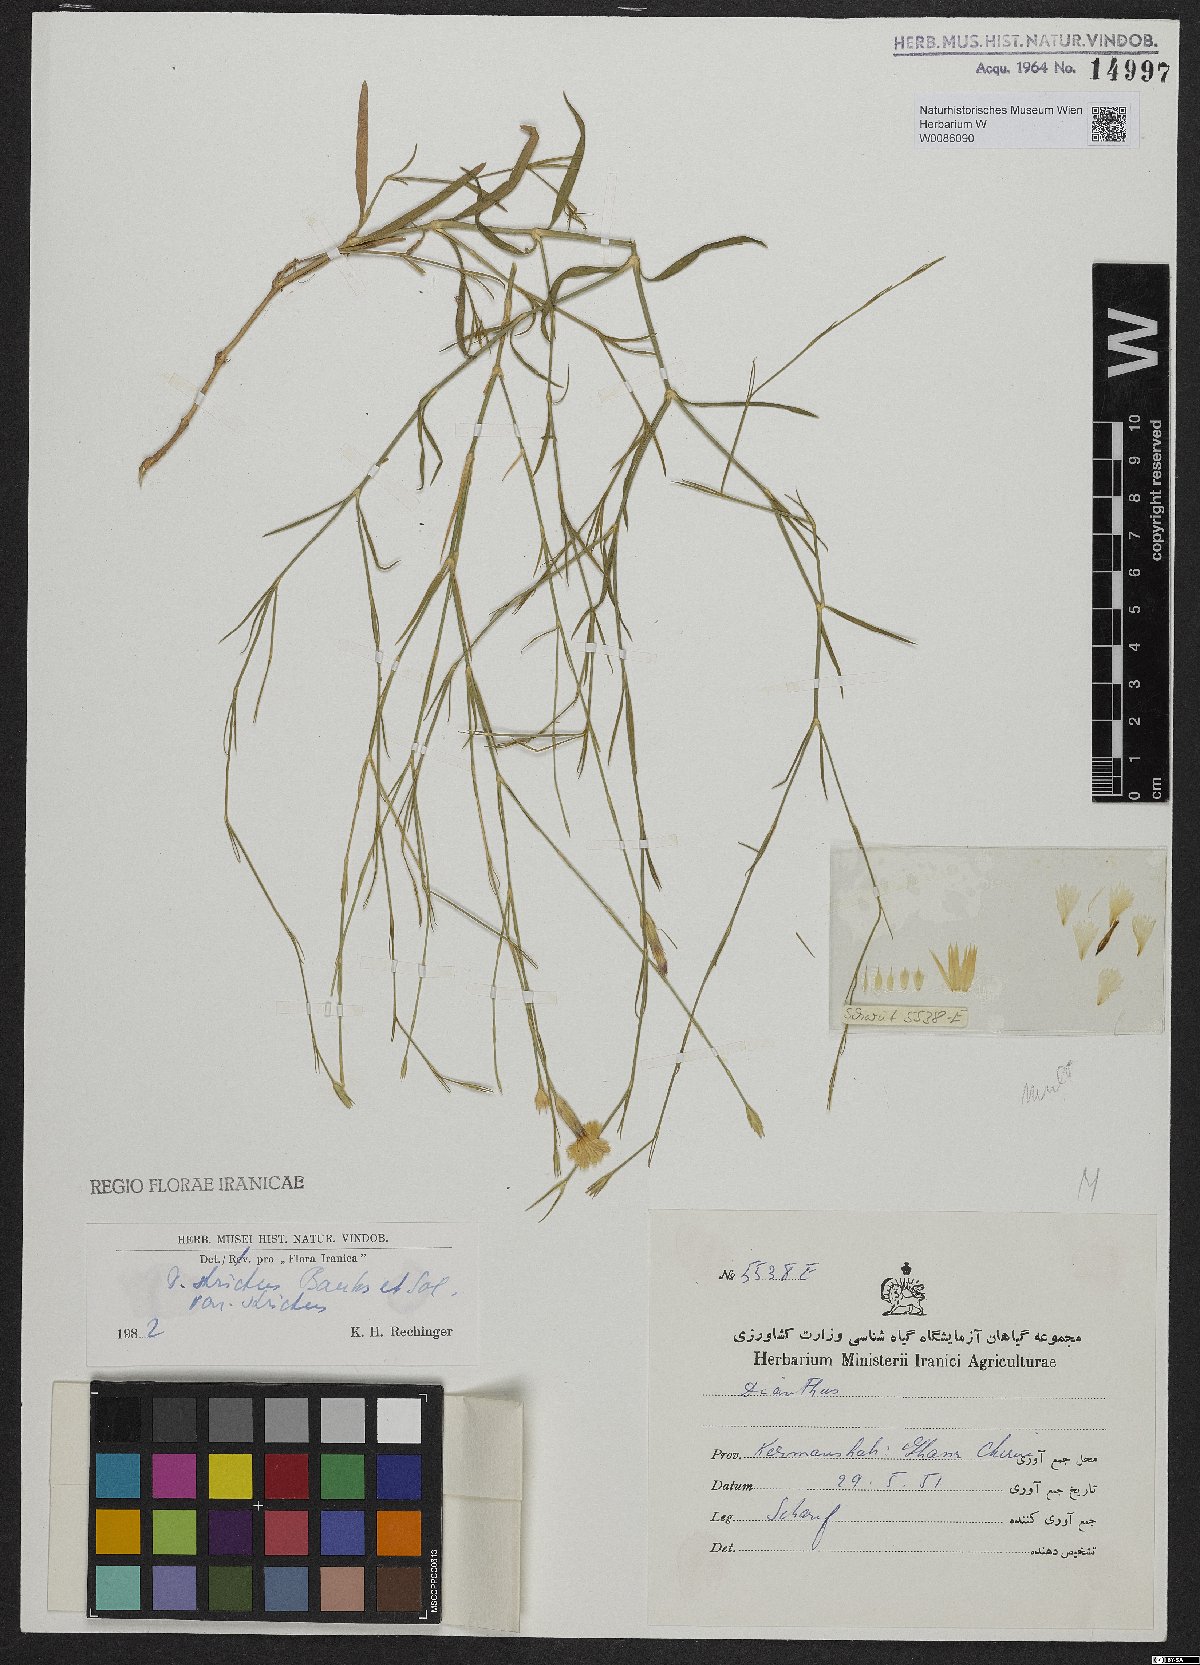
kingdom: Plantae
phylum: Tracheophyta
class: Magnoliopsida
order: Caryophyllales
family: Caryophyllaceae
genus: Dianthus
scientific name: Dianthus strictus
